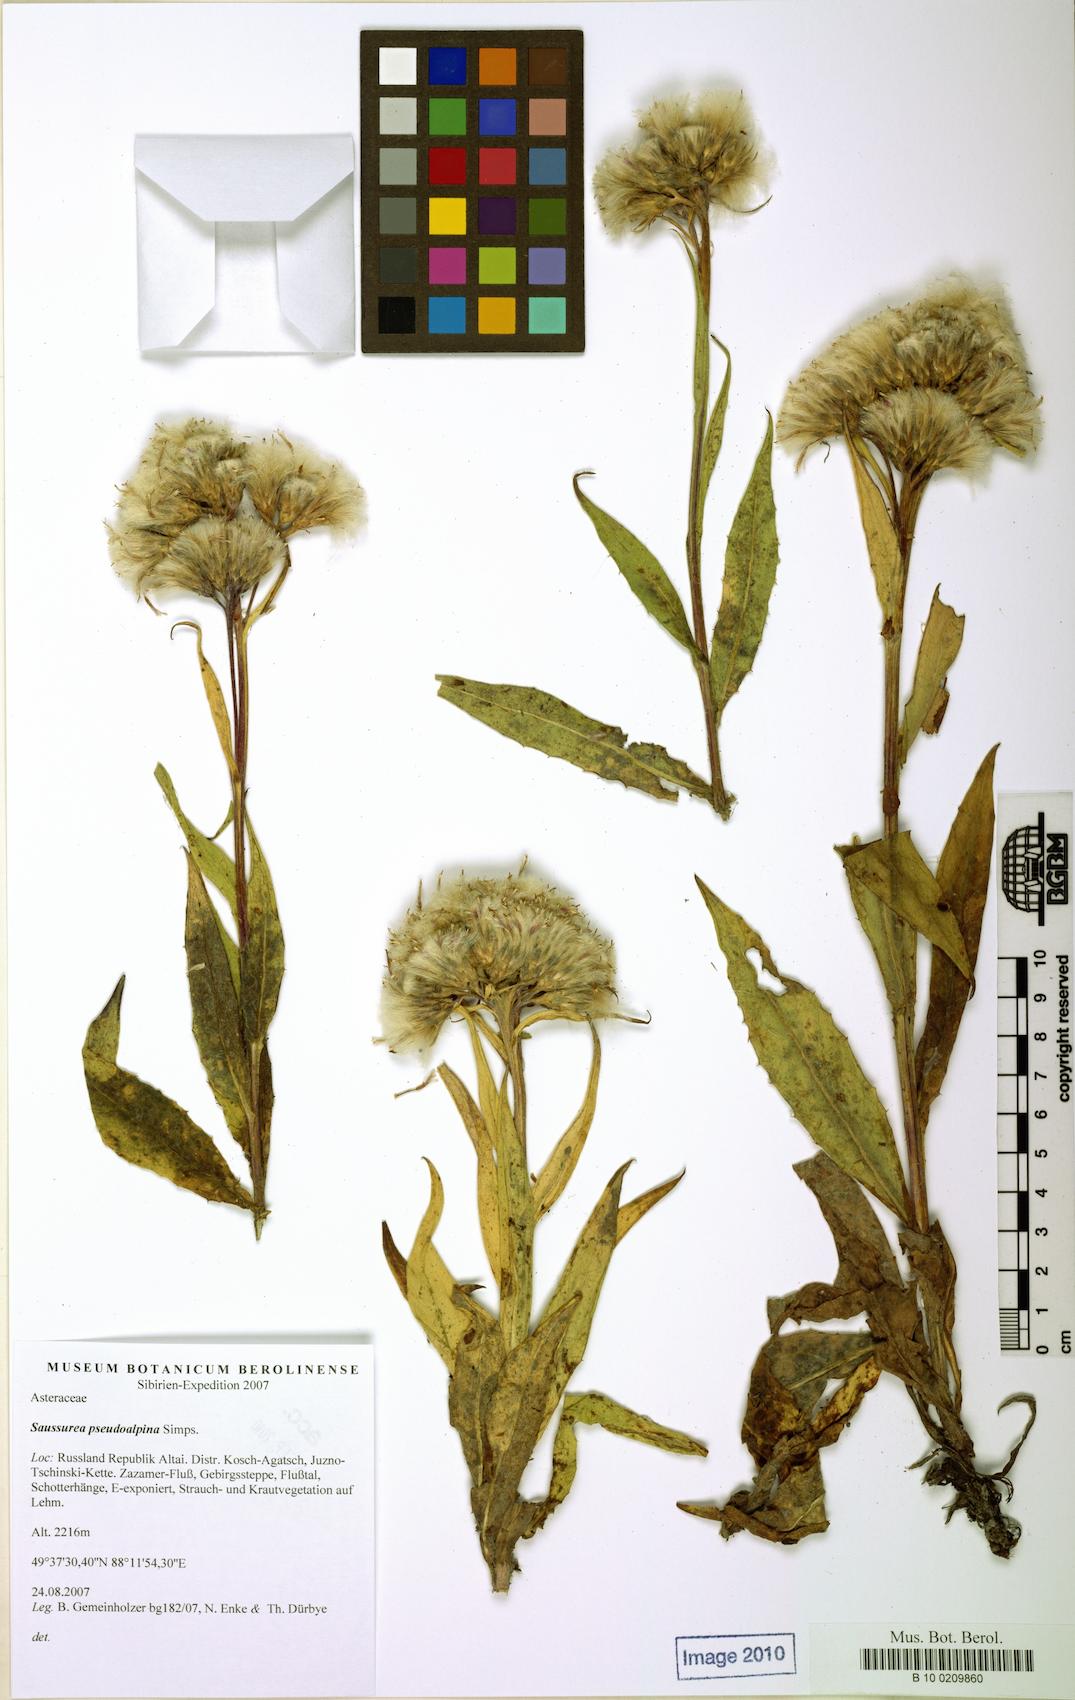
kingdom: Plantae
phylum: Tracheophyta
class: Magnoliopsida
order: Asterales
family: Asteraceae
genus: Saussurea
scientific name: Saussurea pseudoalpina
